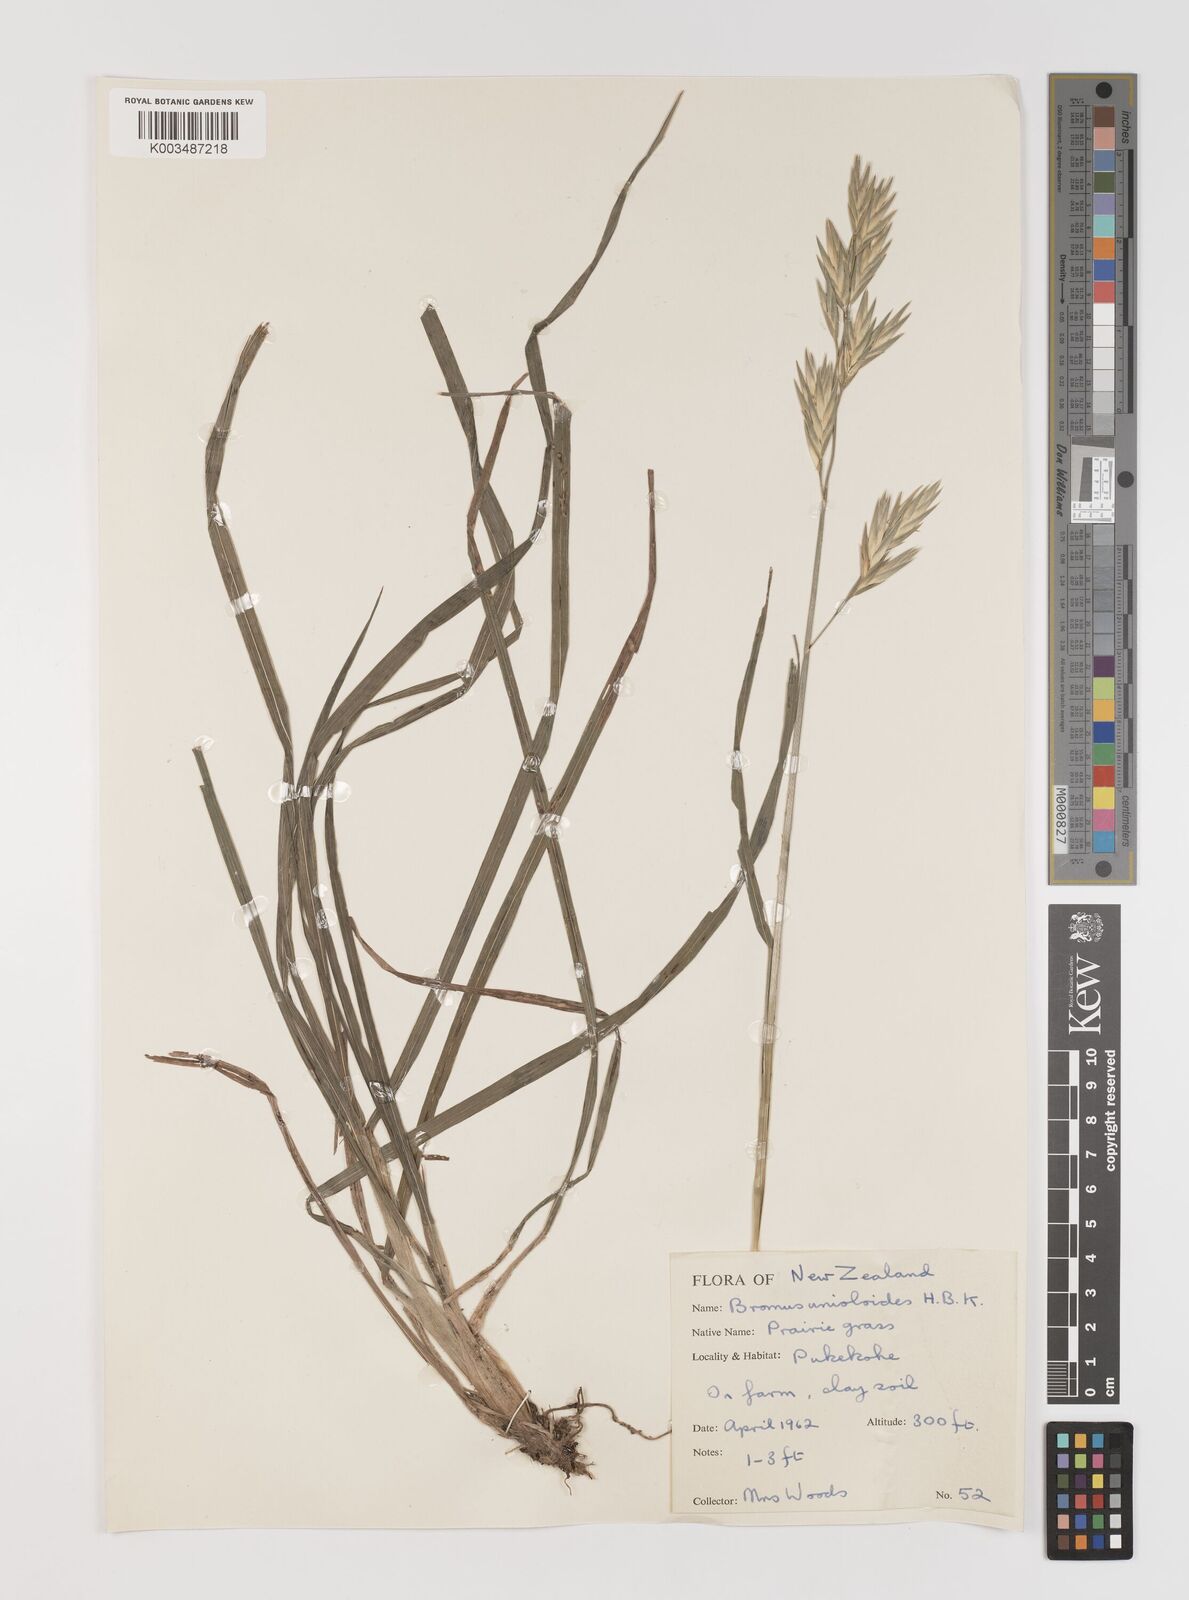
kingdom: Plantae
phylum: Tracheophyta
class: Liliopsida
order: Poales
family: Poaceae
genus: Bromus
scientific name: Bromus catharticus
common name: Rescuegrass
